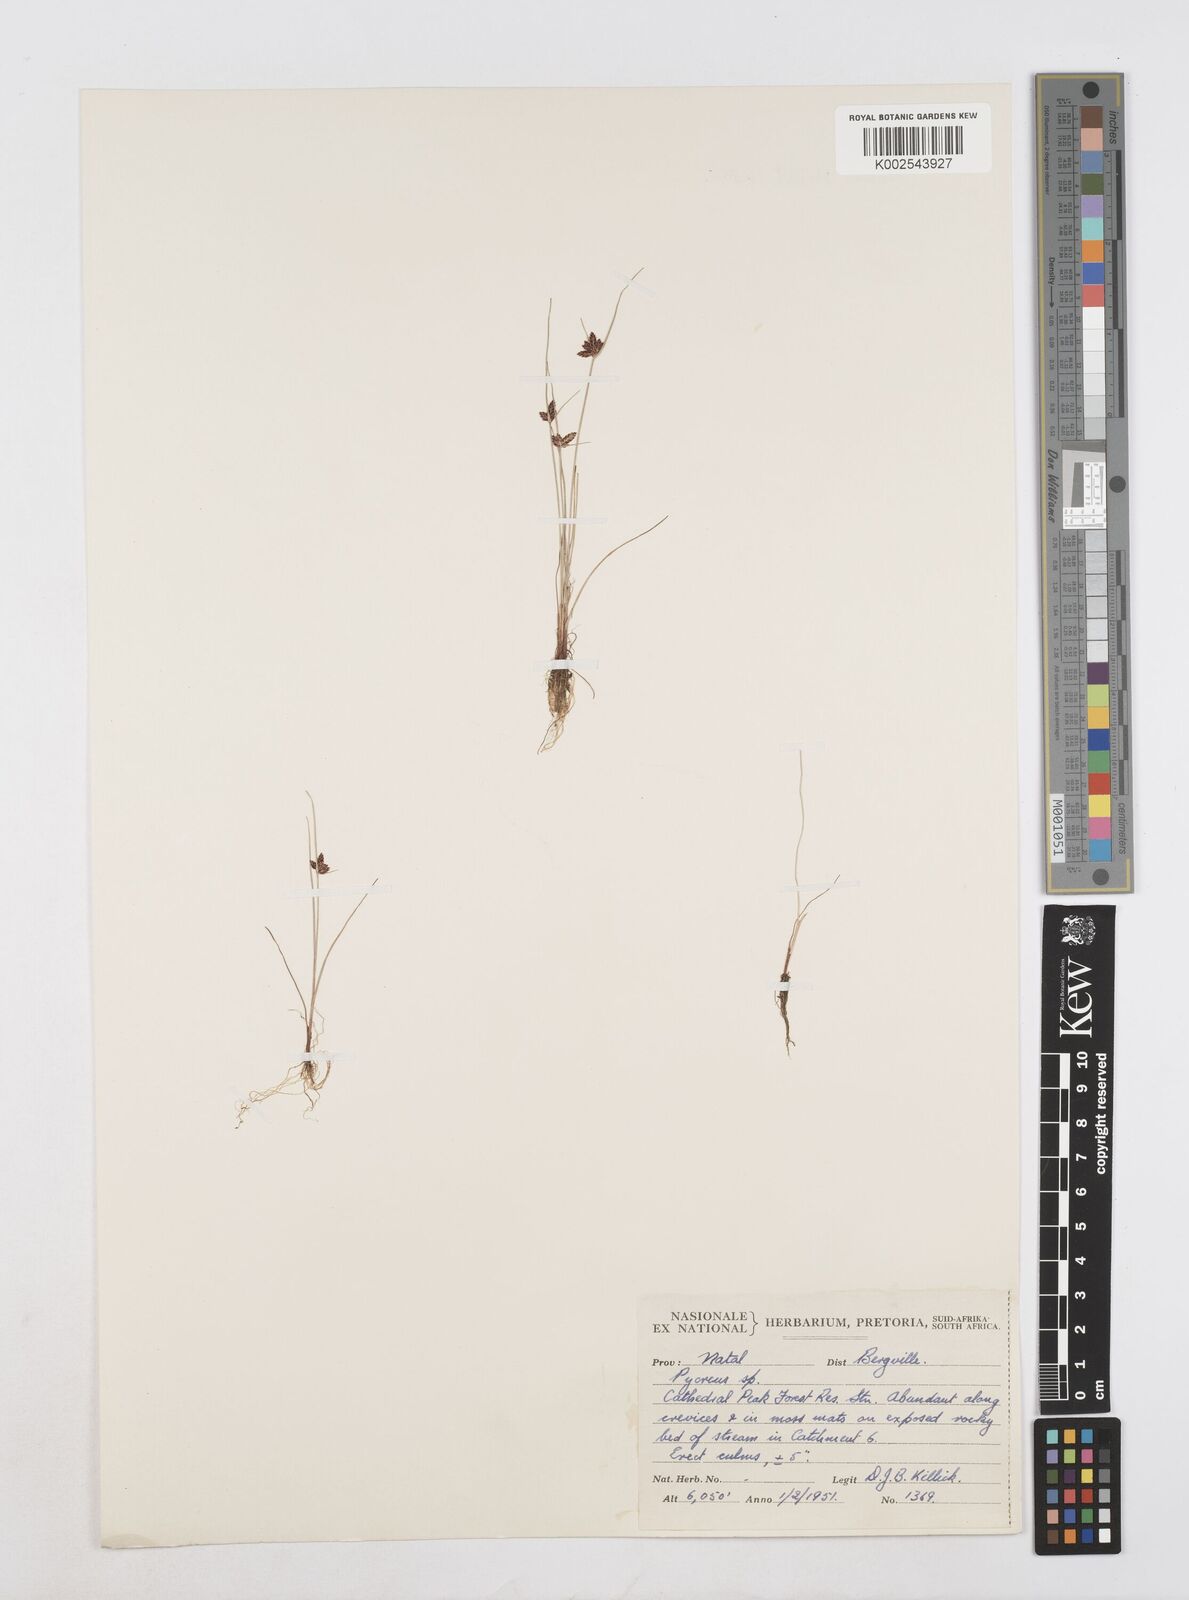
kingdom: Plantae
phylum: Tracheophyta
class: Liliopsida
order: Poales
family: Cyperaceae
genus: Cyperus
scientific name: Cyperus flavescens
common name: Yellow galingale
